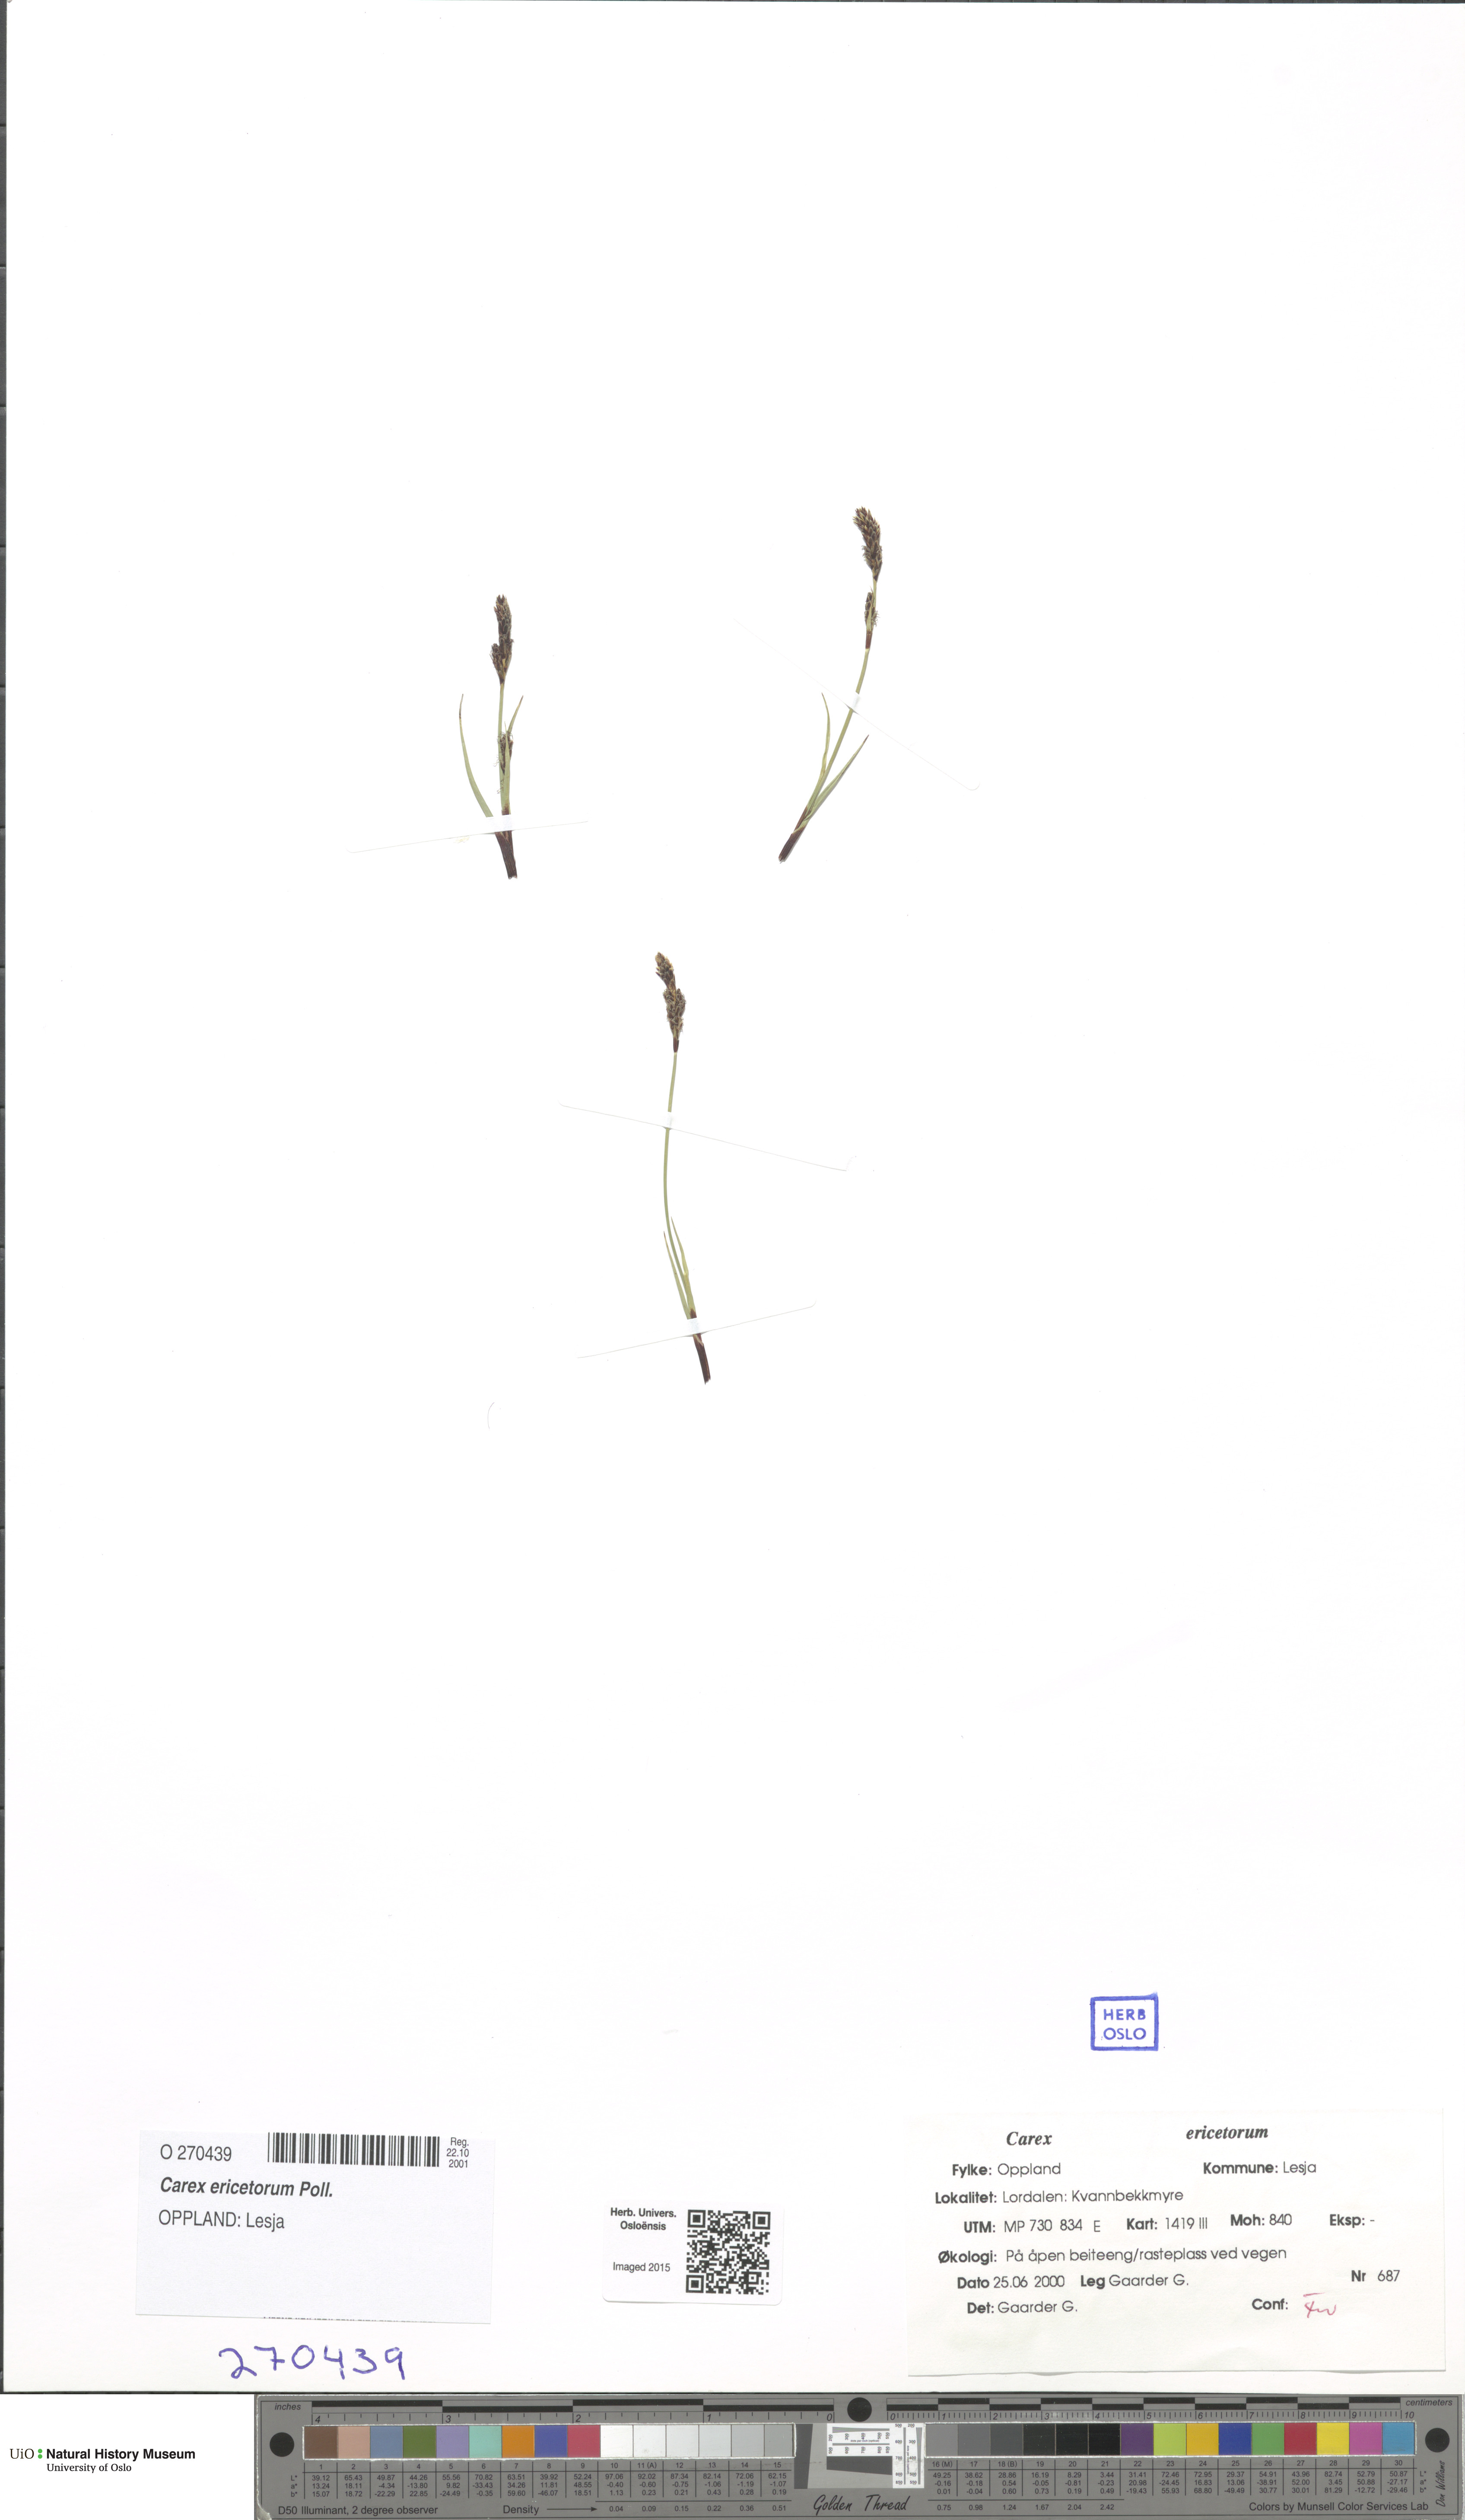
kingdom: Plantae
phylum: Tracheophyta
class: Liliopsida
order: Poales
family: Cyperaceae
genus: Carex
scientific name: Carex ericetorum
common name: Rare spring-sedge
